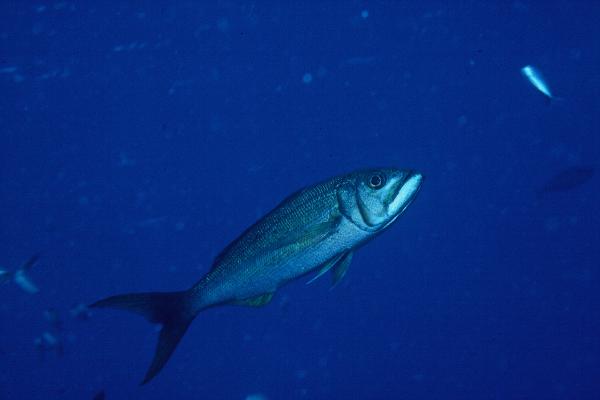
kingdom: Animalia
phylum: Chordata
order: Perciformes
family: Lutjanidae
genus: Aphareus
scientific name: Aphareus furca
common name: Smalltooth jobfish
